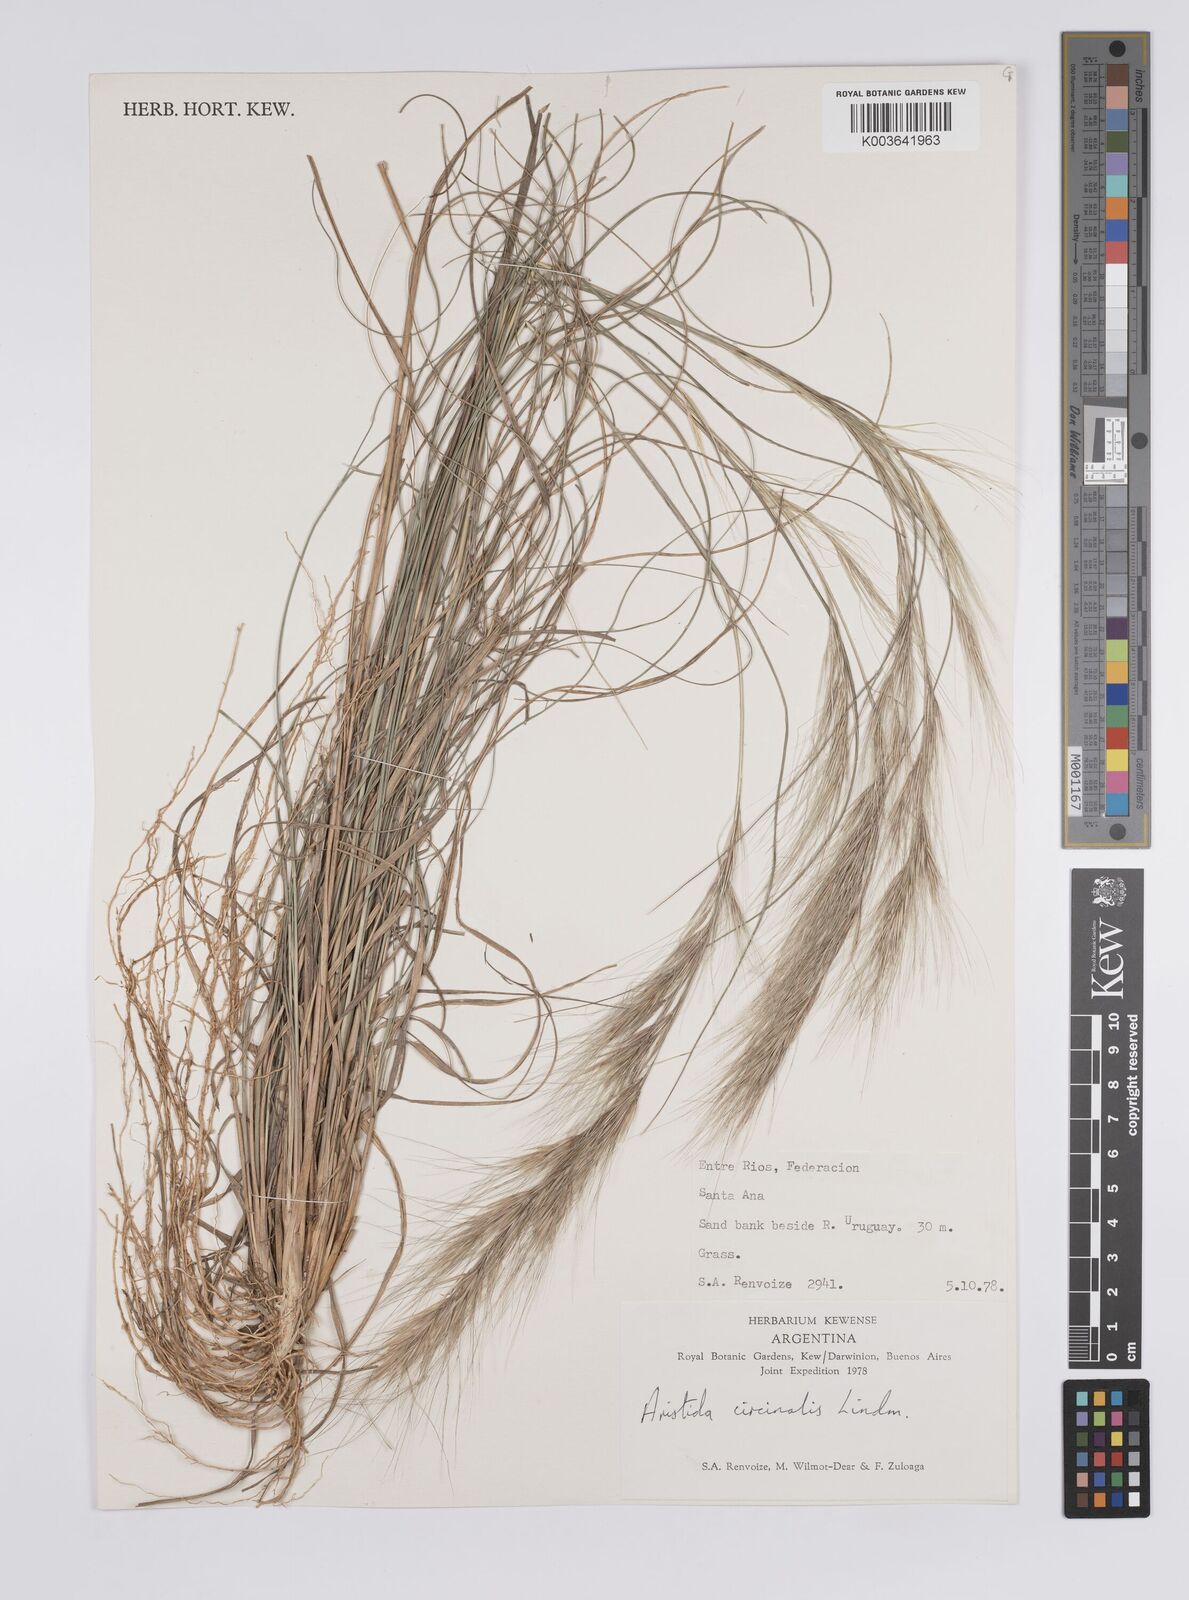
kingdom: Plantae
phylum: Tracheophyta
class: Liliopsida
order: Poales
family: Poaceae
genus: Aristida
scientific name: Aristida circinalis
